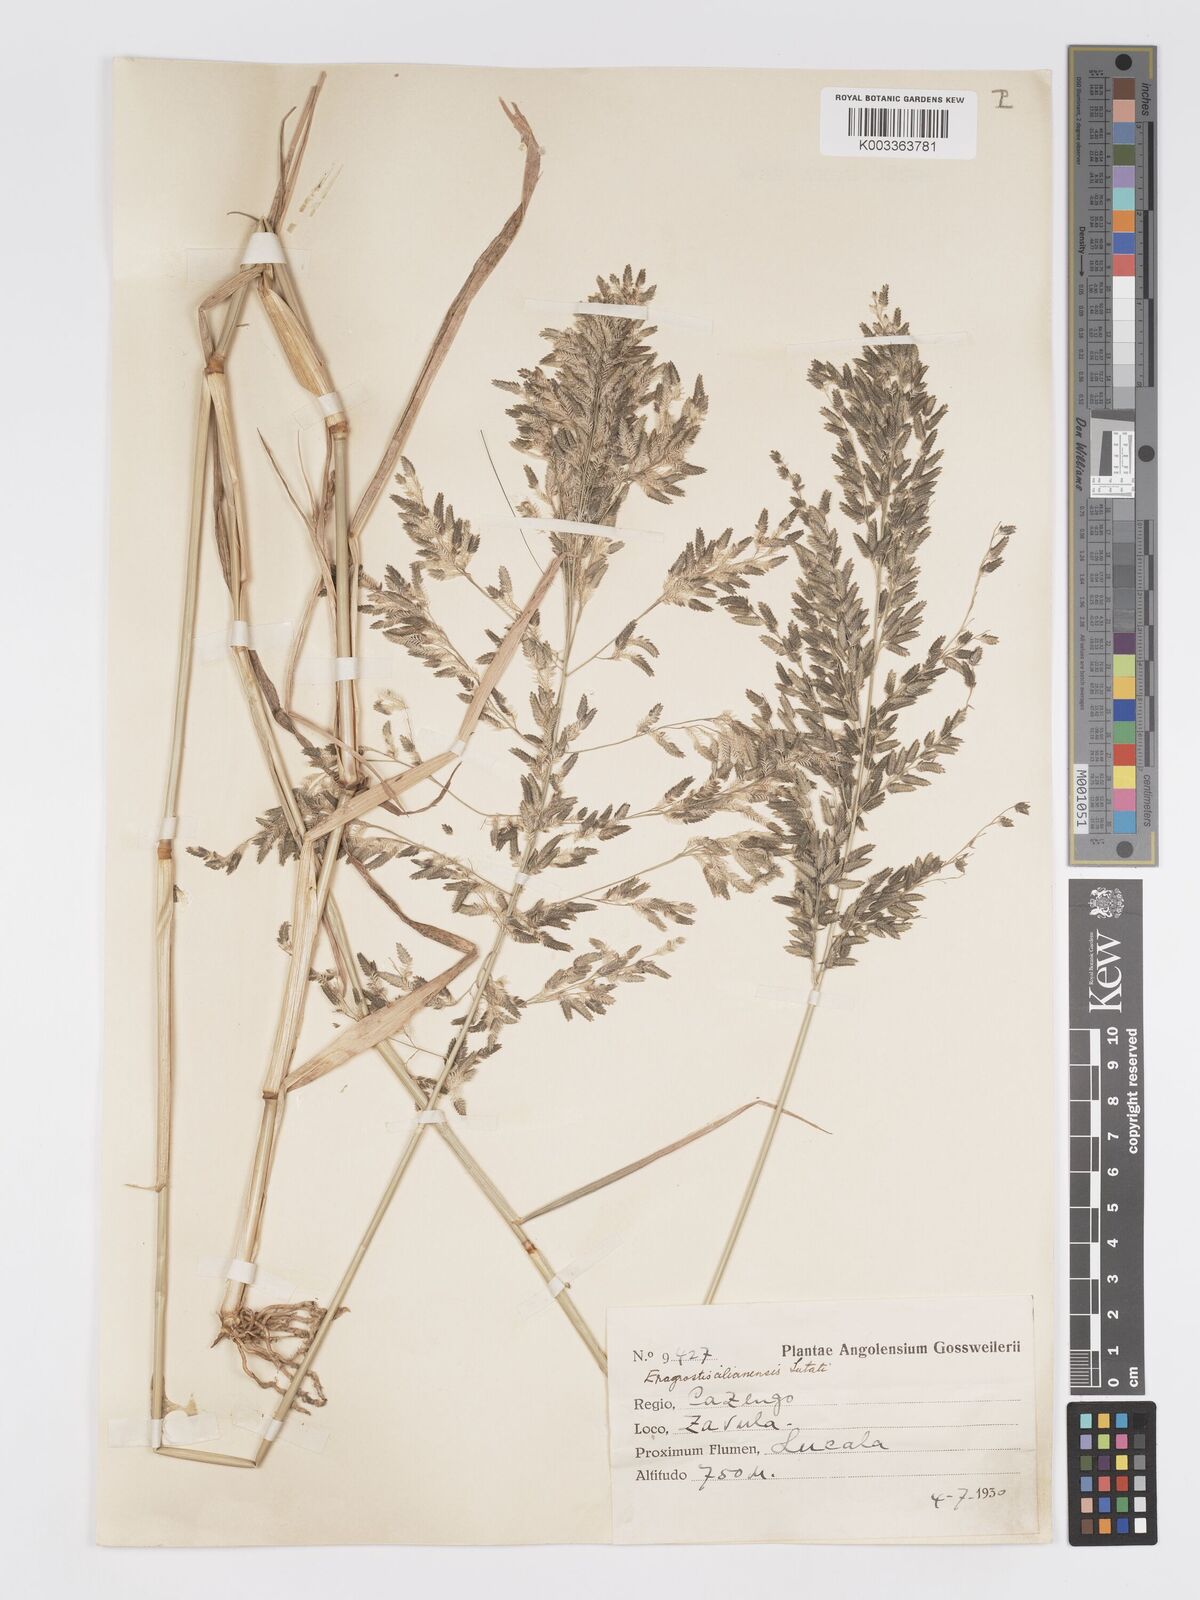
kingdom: Plantae
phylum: Tracheophyta
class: Liliopsida
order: Poales
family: Poaceae
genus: Eragrostis
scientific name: Eragrostis cilianensis
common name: Stinkgrass
